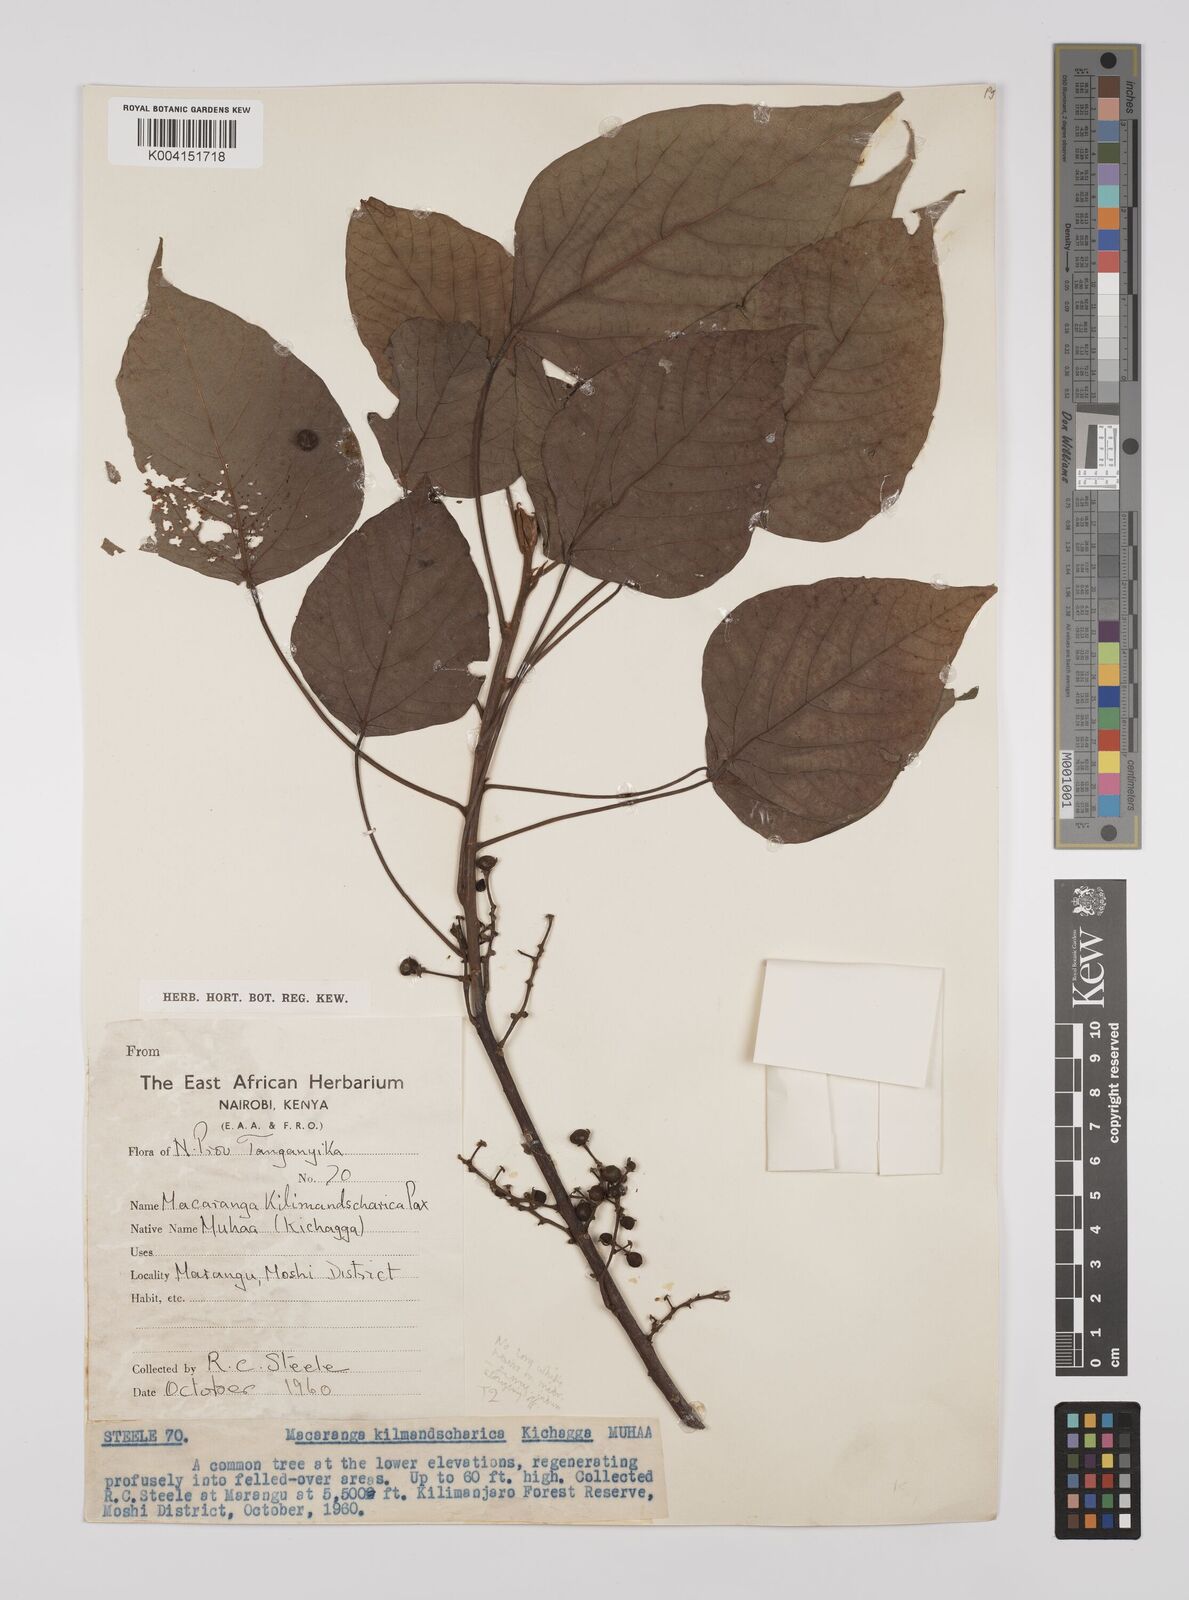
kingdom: Plantae
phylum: Tracheophyta
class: Magnoliopsida
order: Malpighiales
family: Euphorbiaceae
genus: Macaranga
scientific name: Macaranga kilimandscharica
